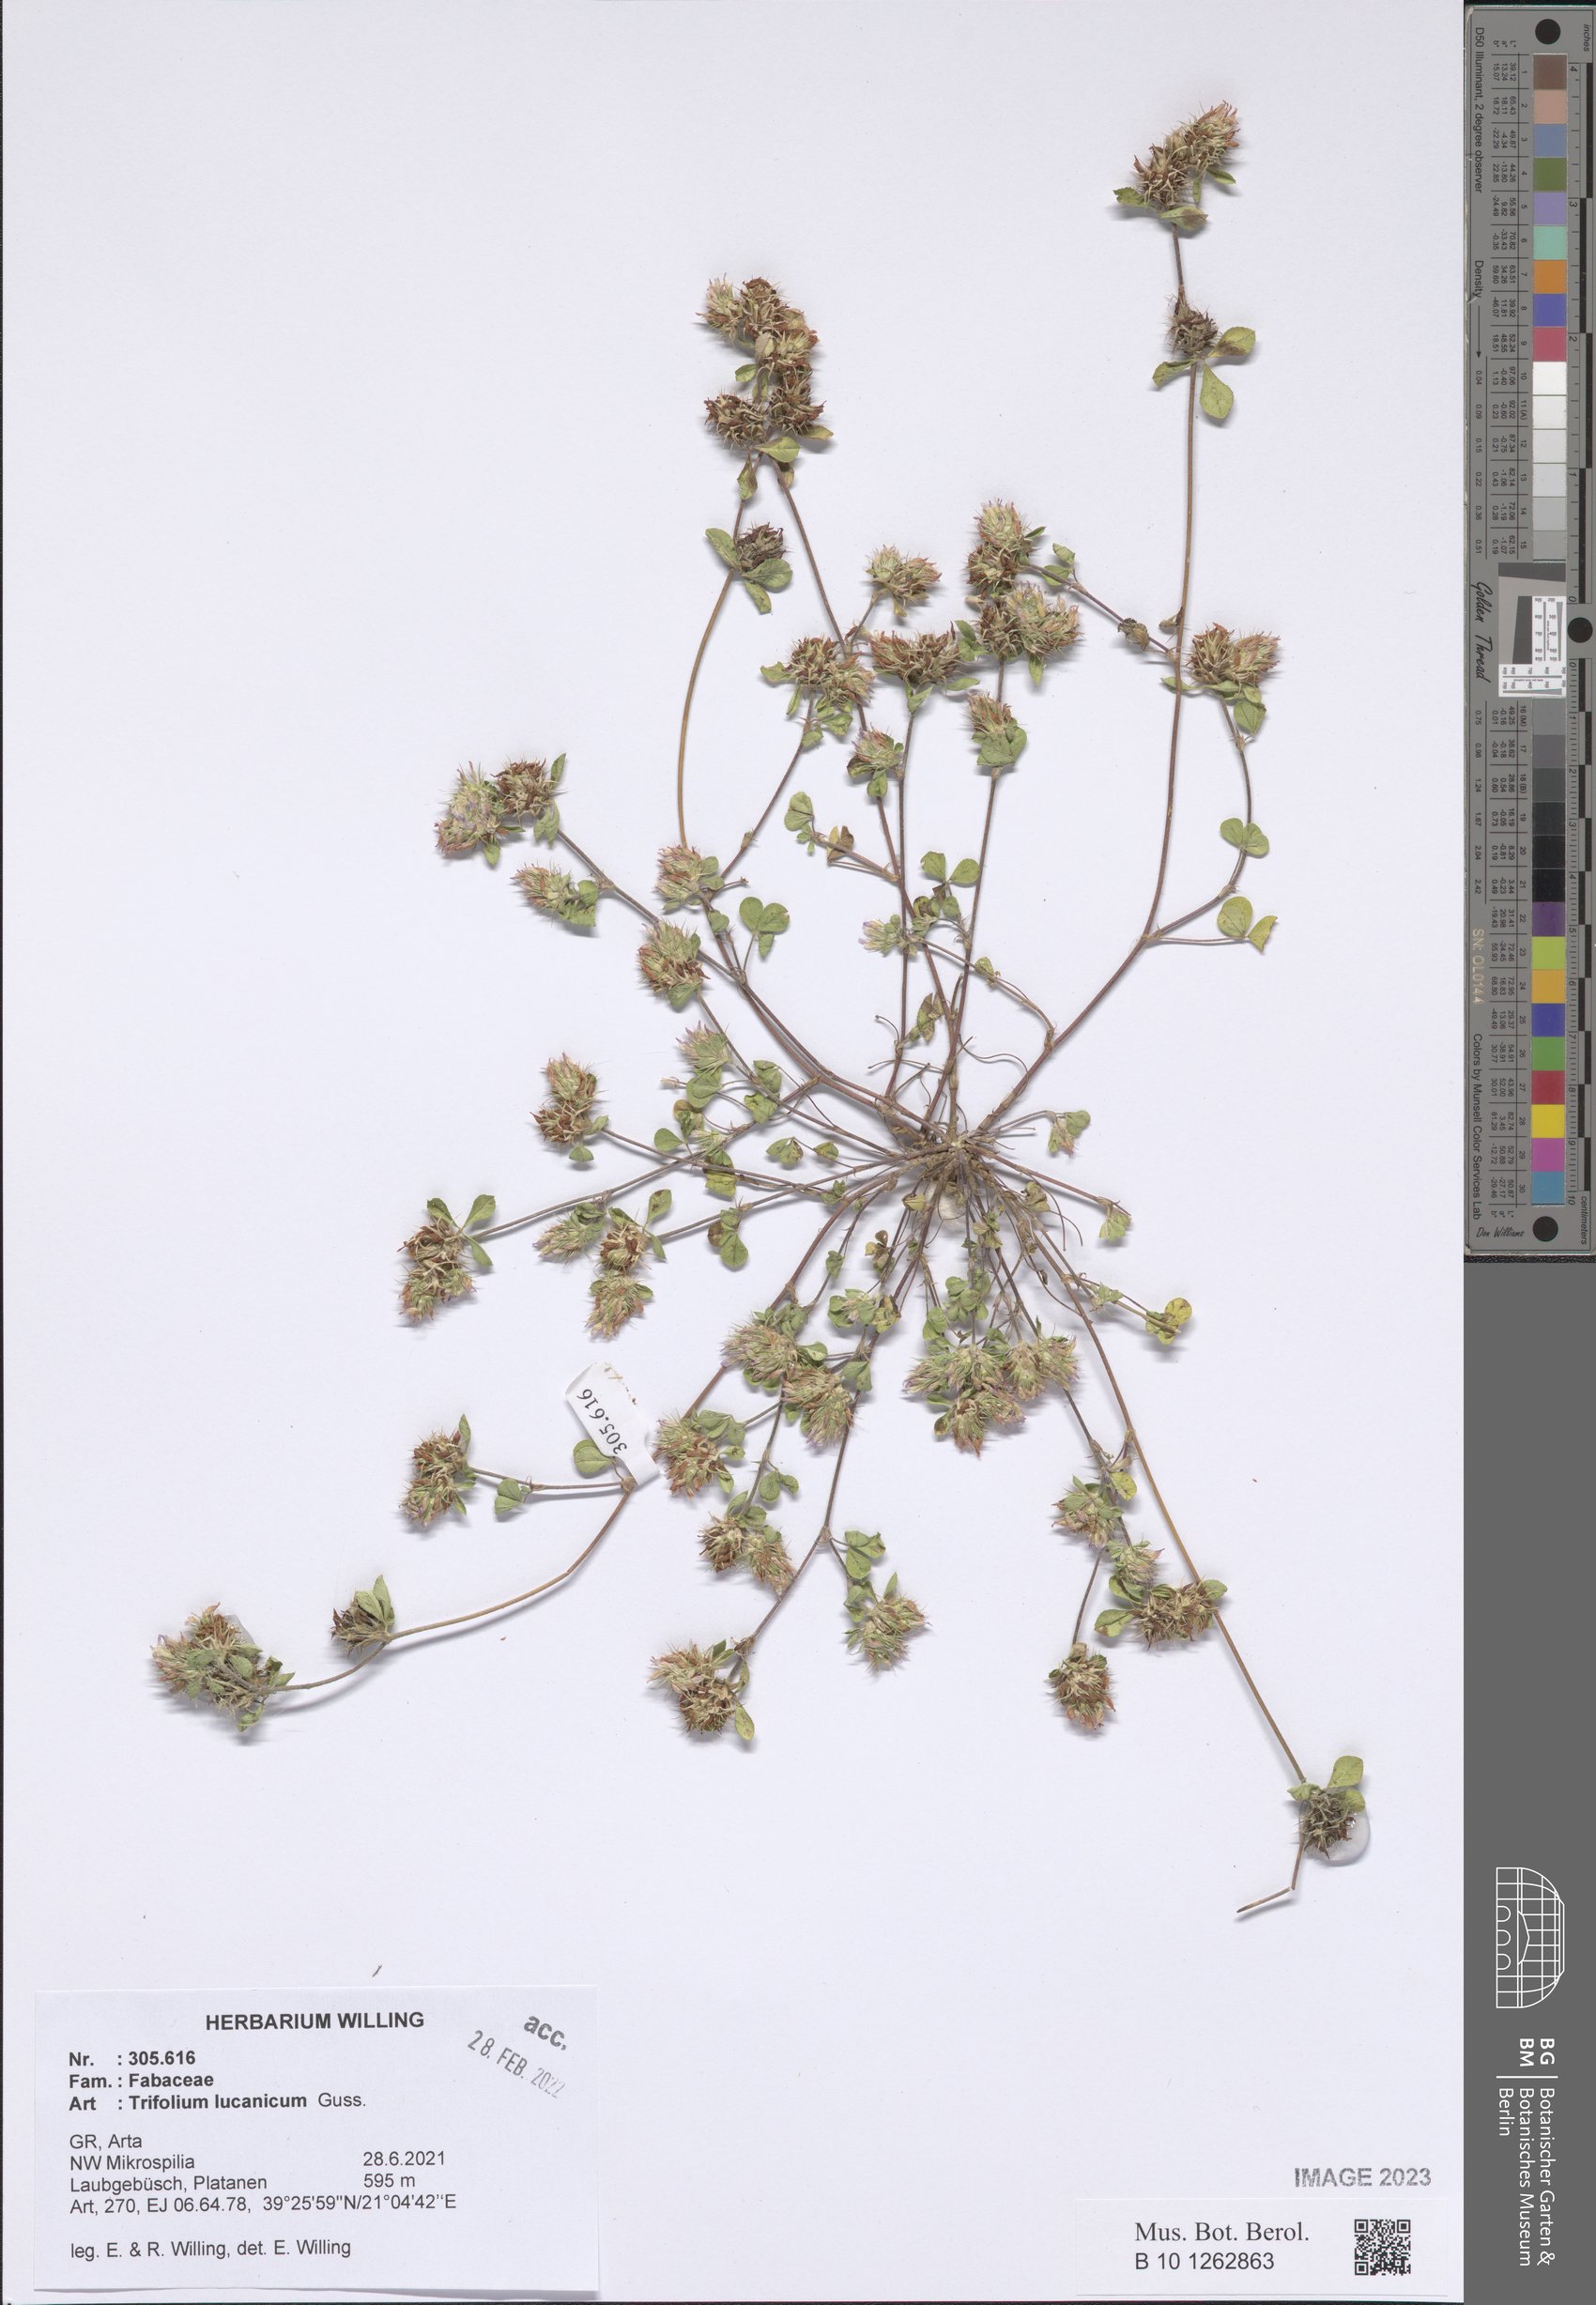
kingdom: Plantae
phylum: Tracheophyta
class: Magnoliopsida
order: Fabales
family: Fabaceae
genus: Trifolium
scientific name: Trifolium lucanicum
